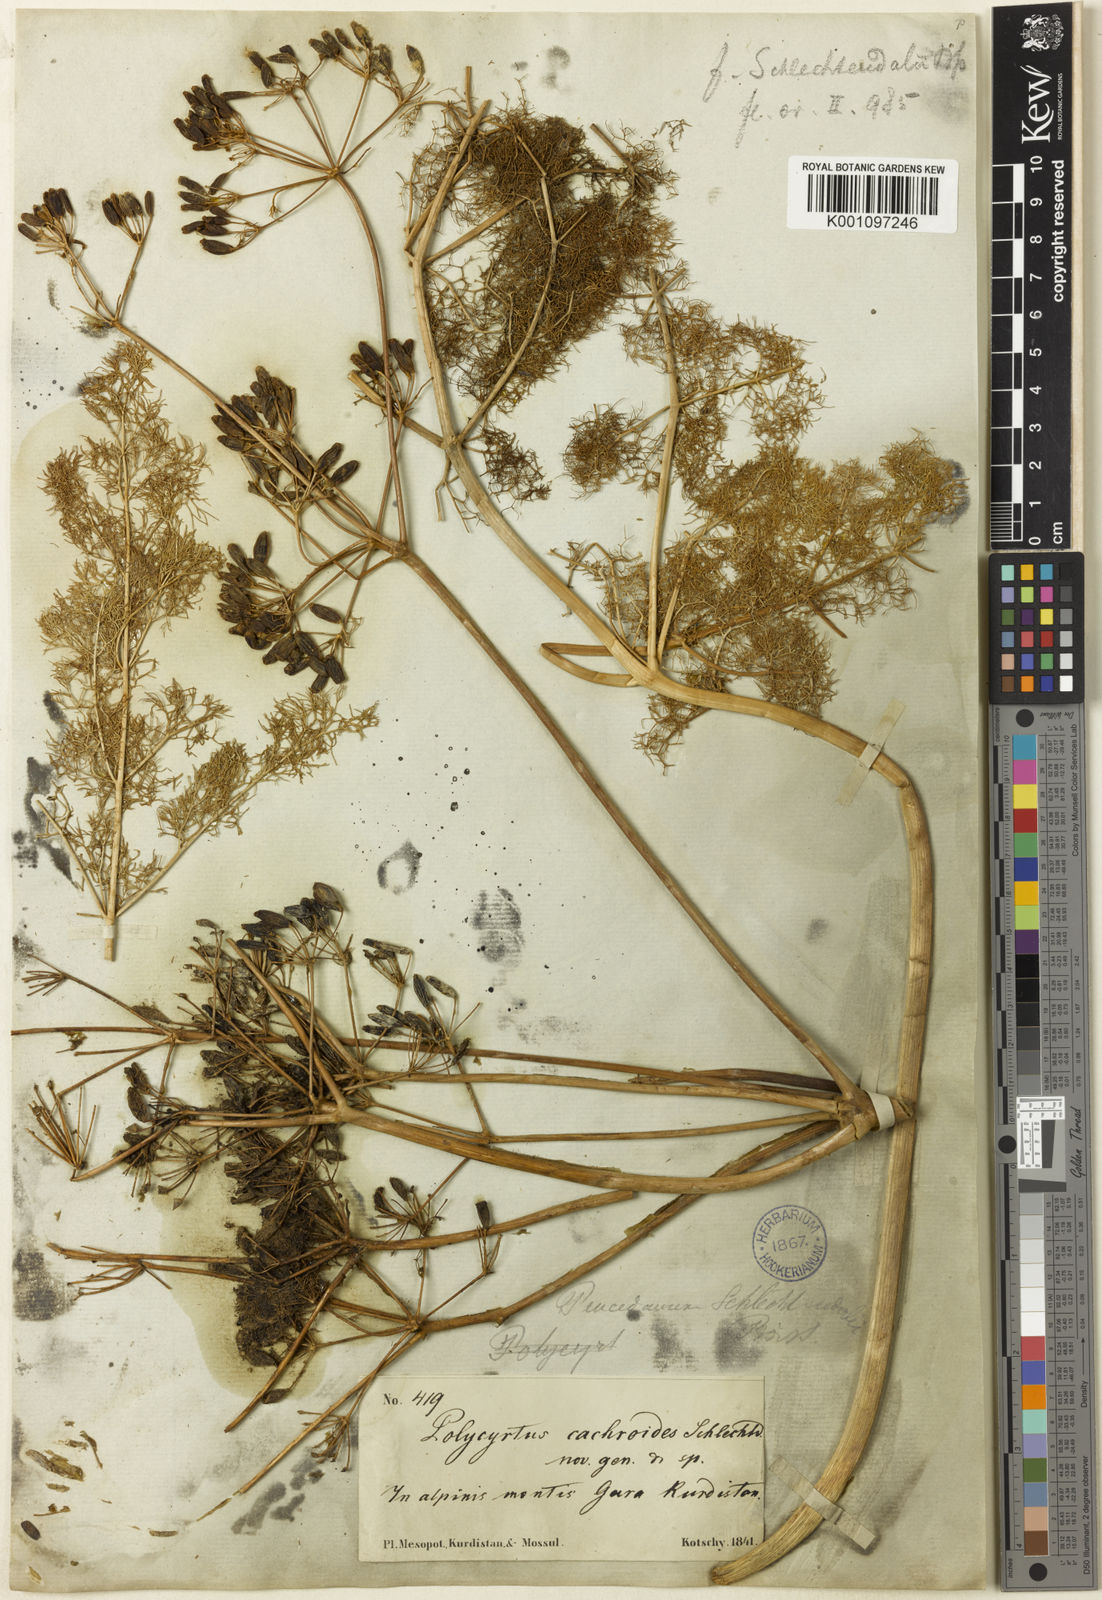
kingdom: Plantae
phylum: Tracheophyta
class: Magnoliopsida
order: Apiales
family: Apiaceae
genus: Ferula
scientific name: Ferula orientalis
